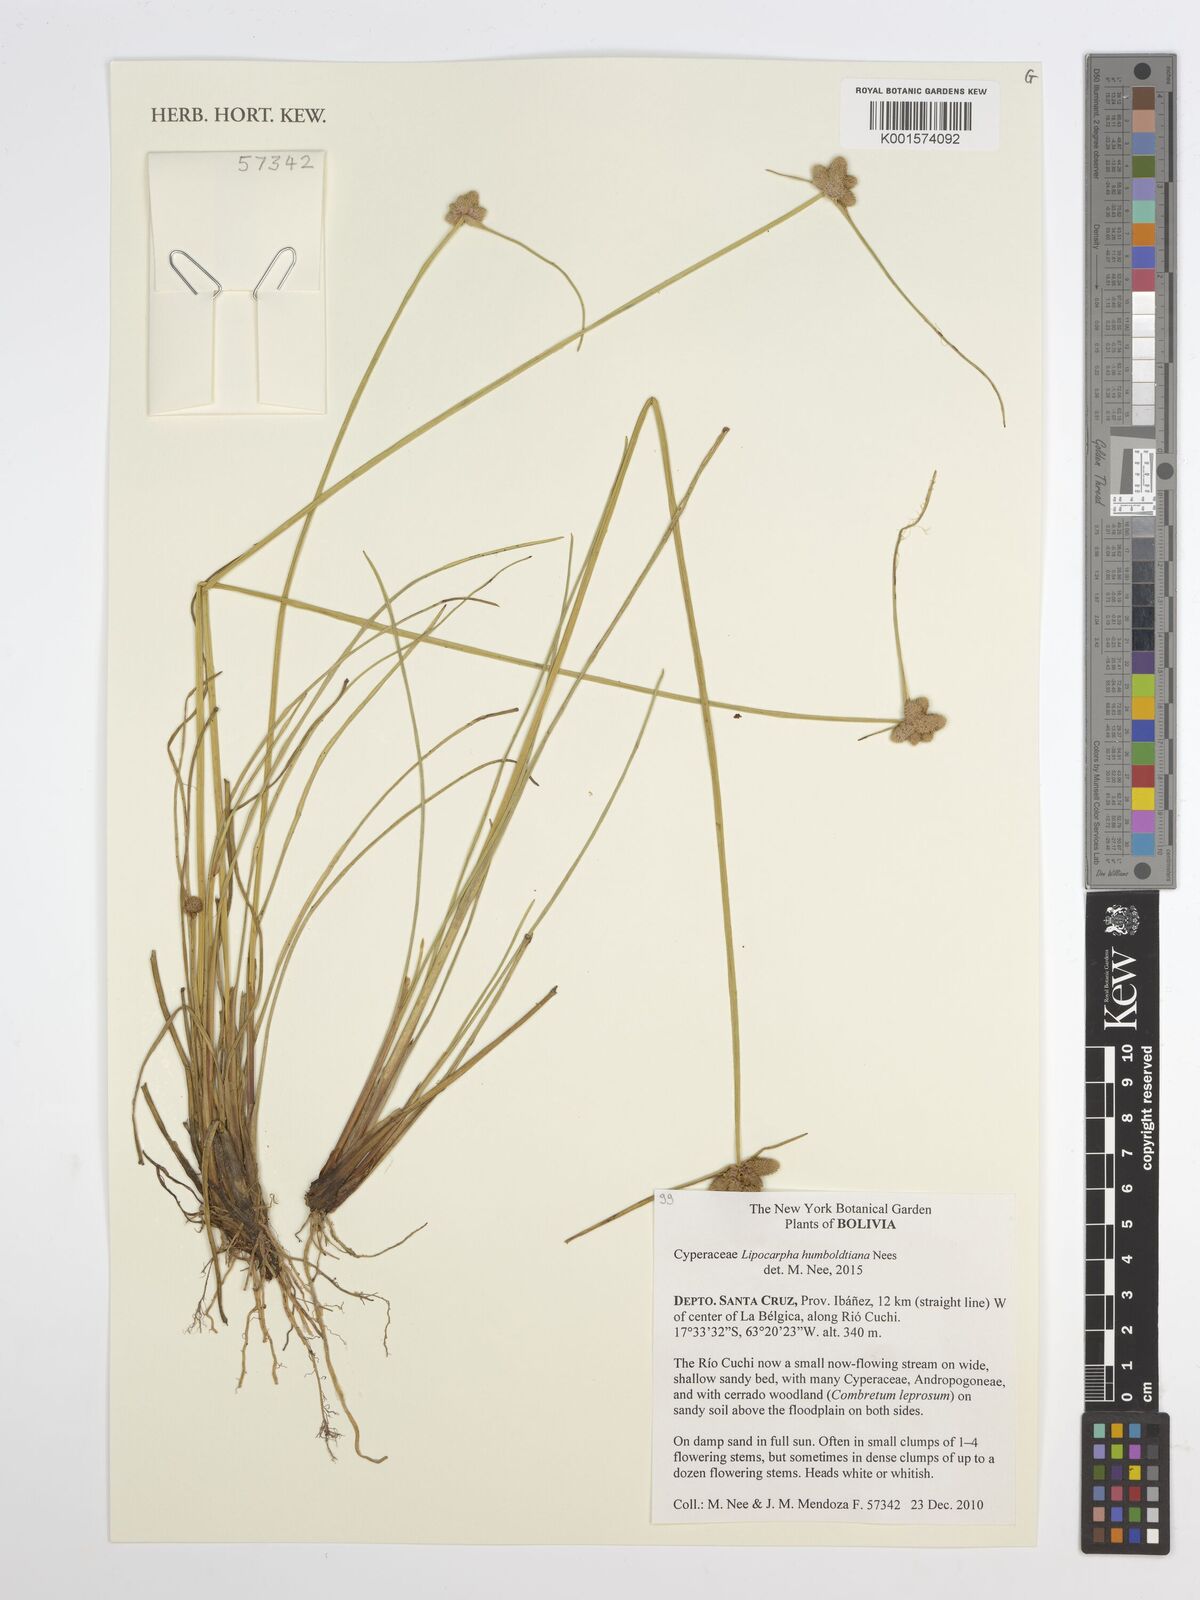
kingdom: Plantae
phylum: Tracheophyta
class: Liliopsida
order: Poales
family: Cyperaceae
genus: Cyperus
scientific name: Cyperus sellowianus
